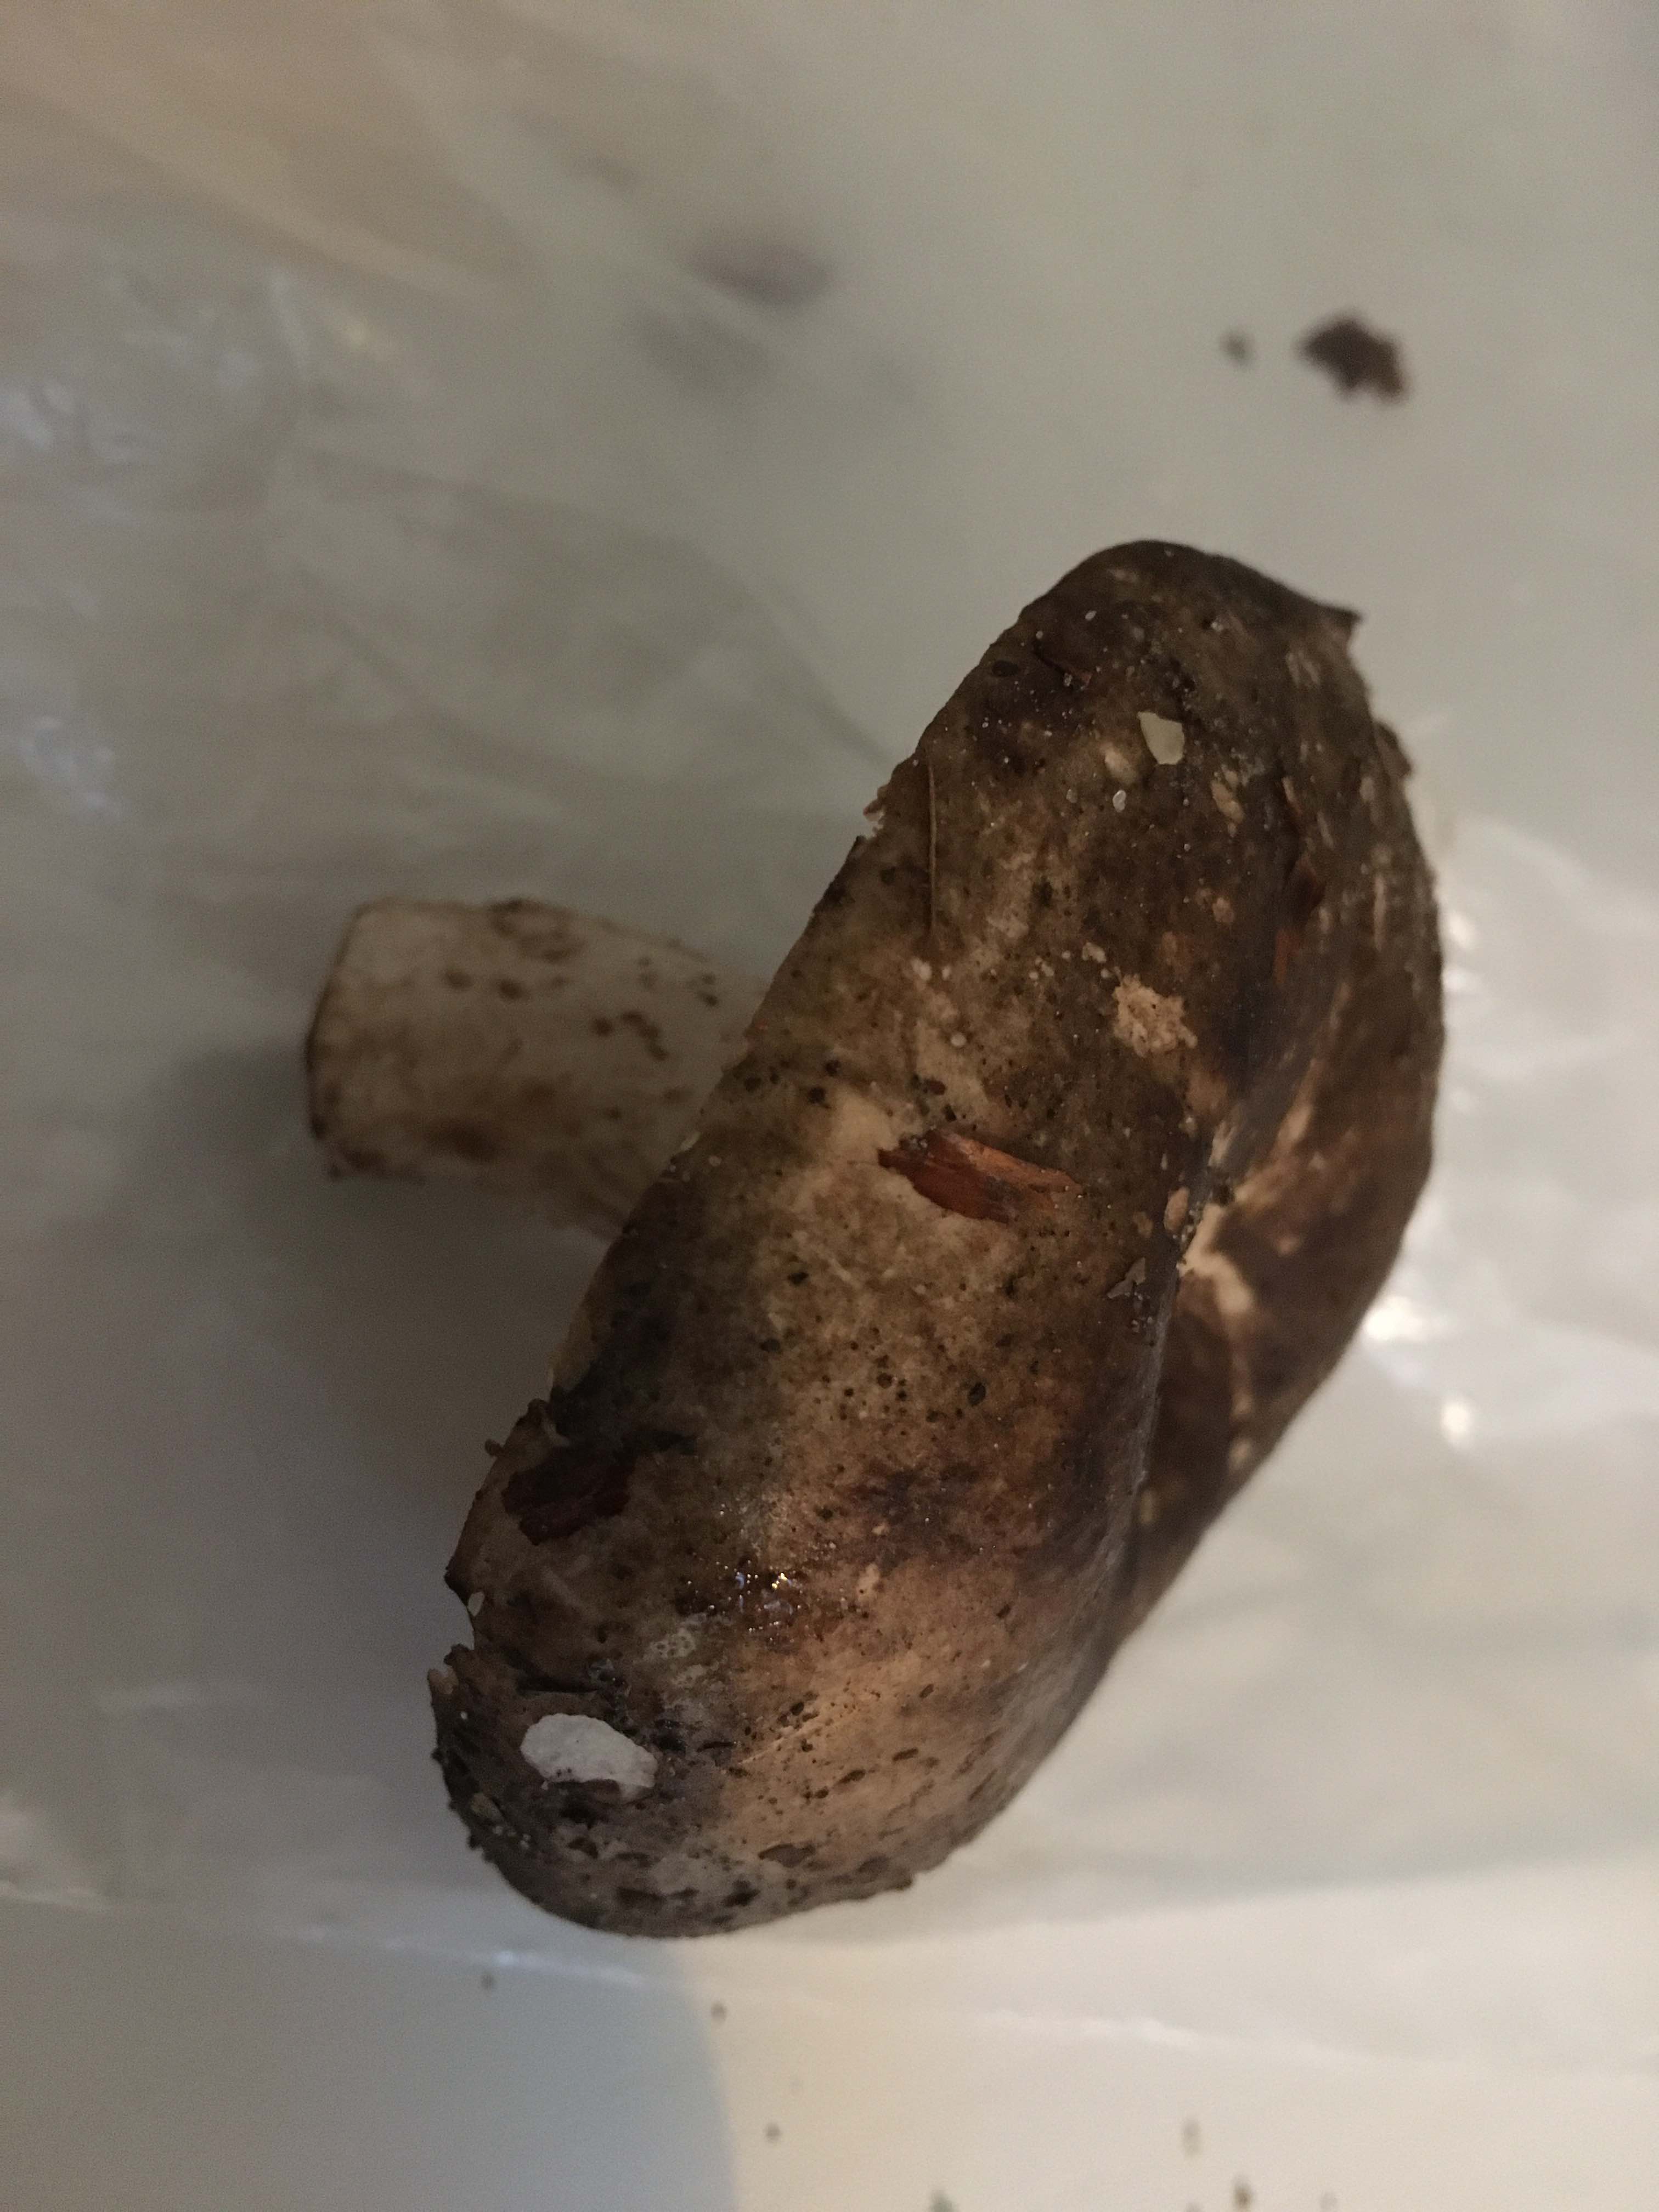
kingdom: Fungi
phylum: Basidiomycota
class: Agaricomycetes
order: Russulales
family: Russulaceae
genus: Russula
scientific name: Russula adusta
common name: sværtende skørhat
